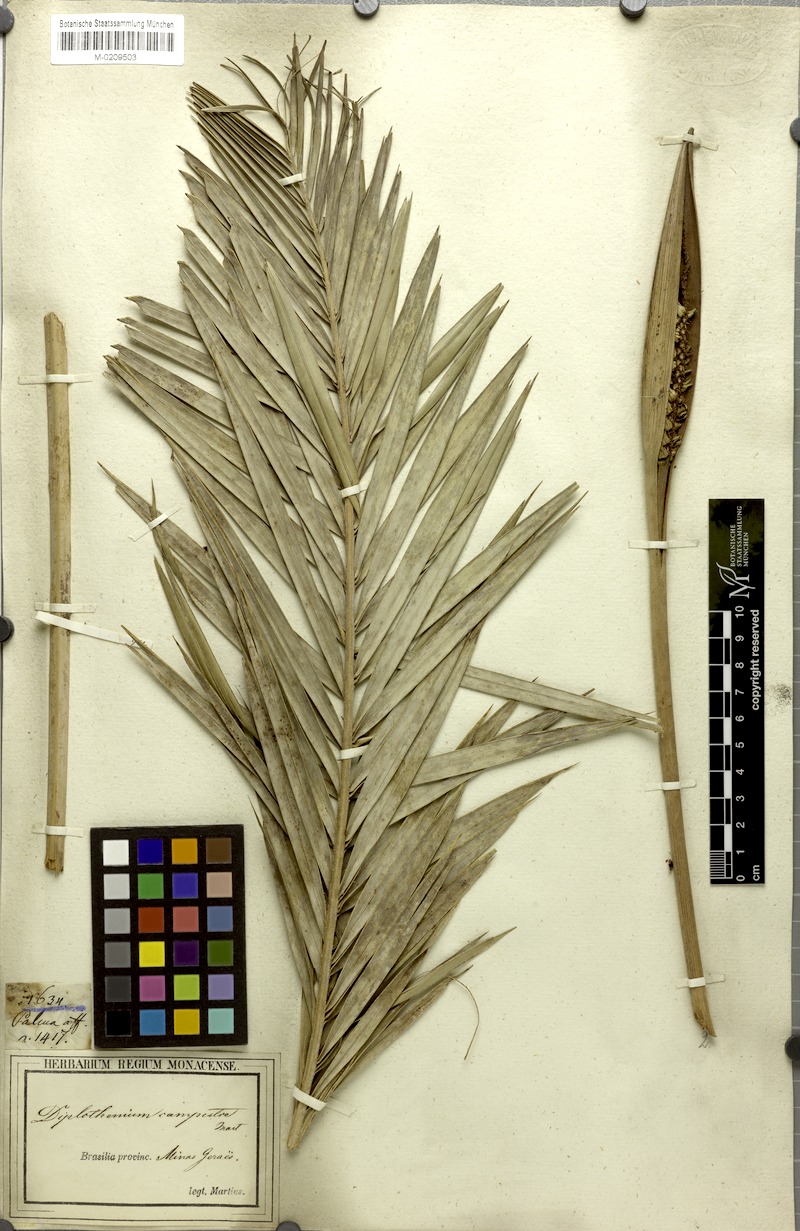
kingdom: Plantae
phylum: Tracheophyta
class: Liliopsida
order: Arecales
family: Arecaceae
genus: Allagoptera
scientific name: Allagoptera campestris
